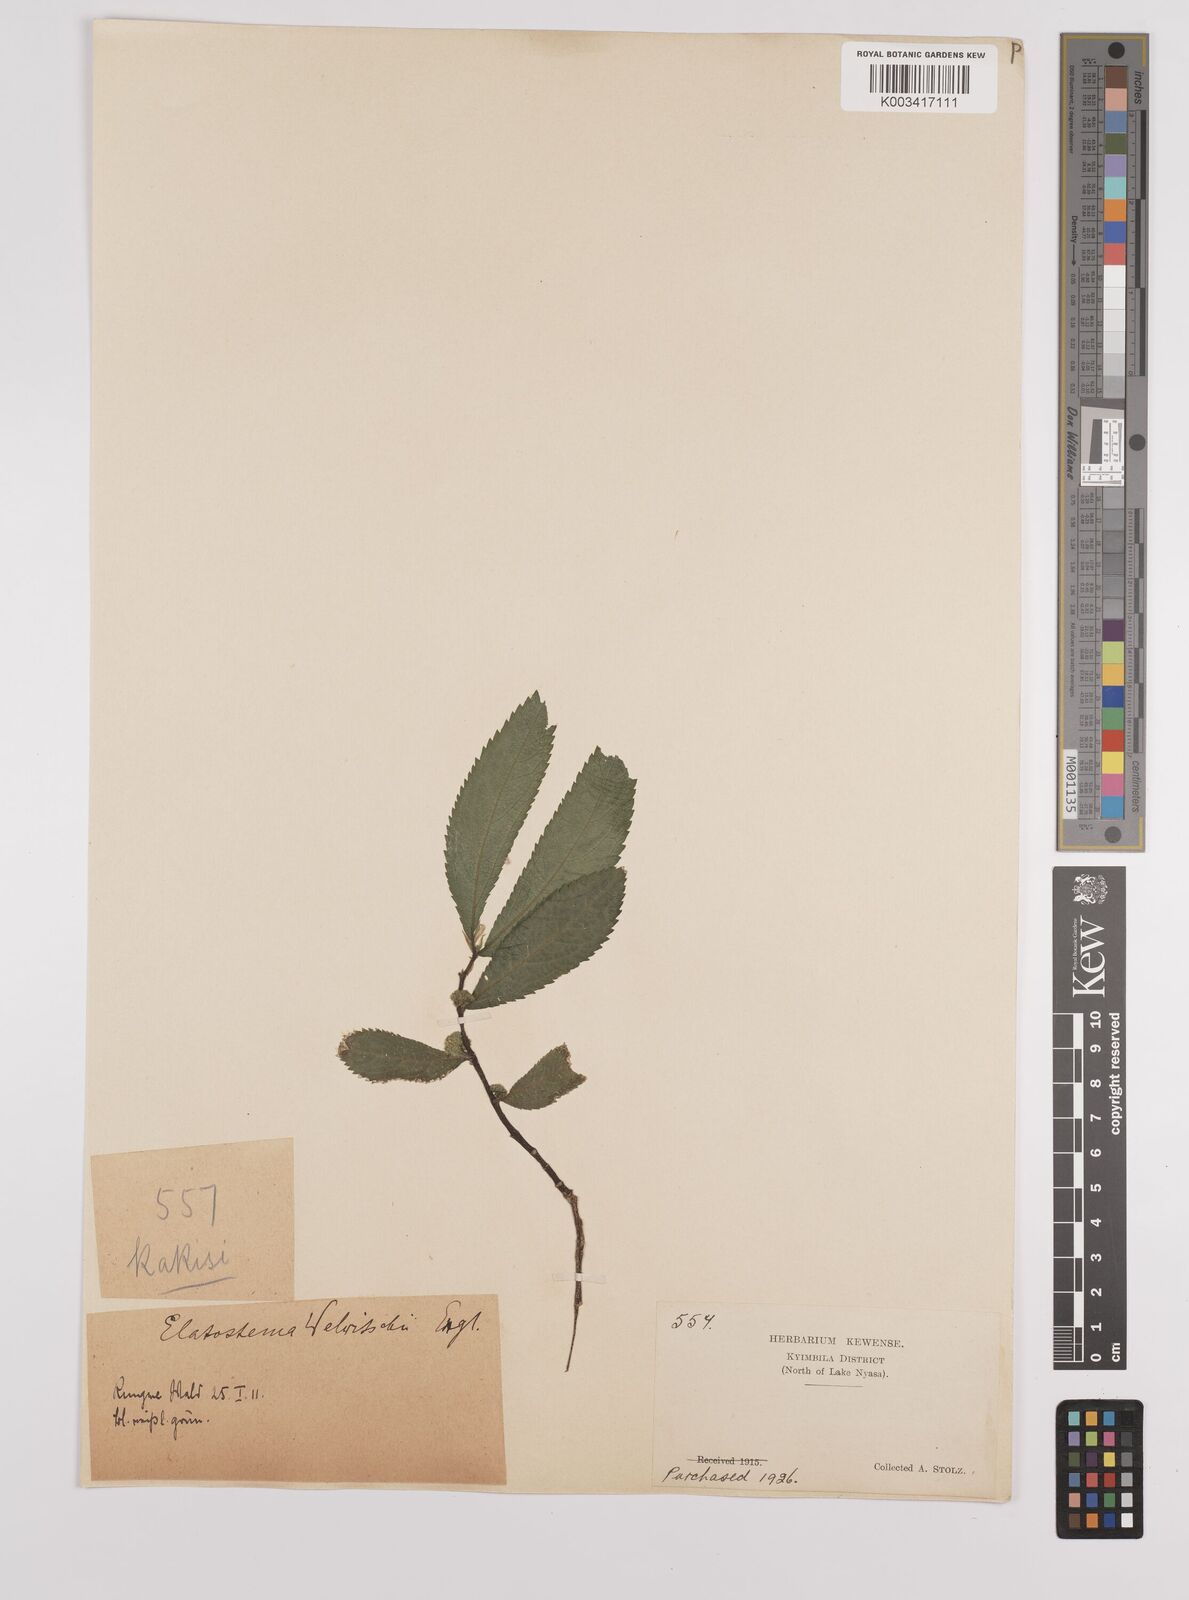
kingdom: Plantae
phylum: Tracheophyta
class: Magnoliopsida
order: Rosales
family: Urticaceae
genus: Elatostema
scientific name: Elatostema welwitschii
